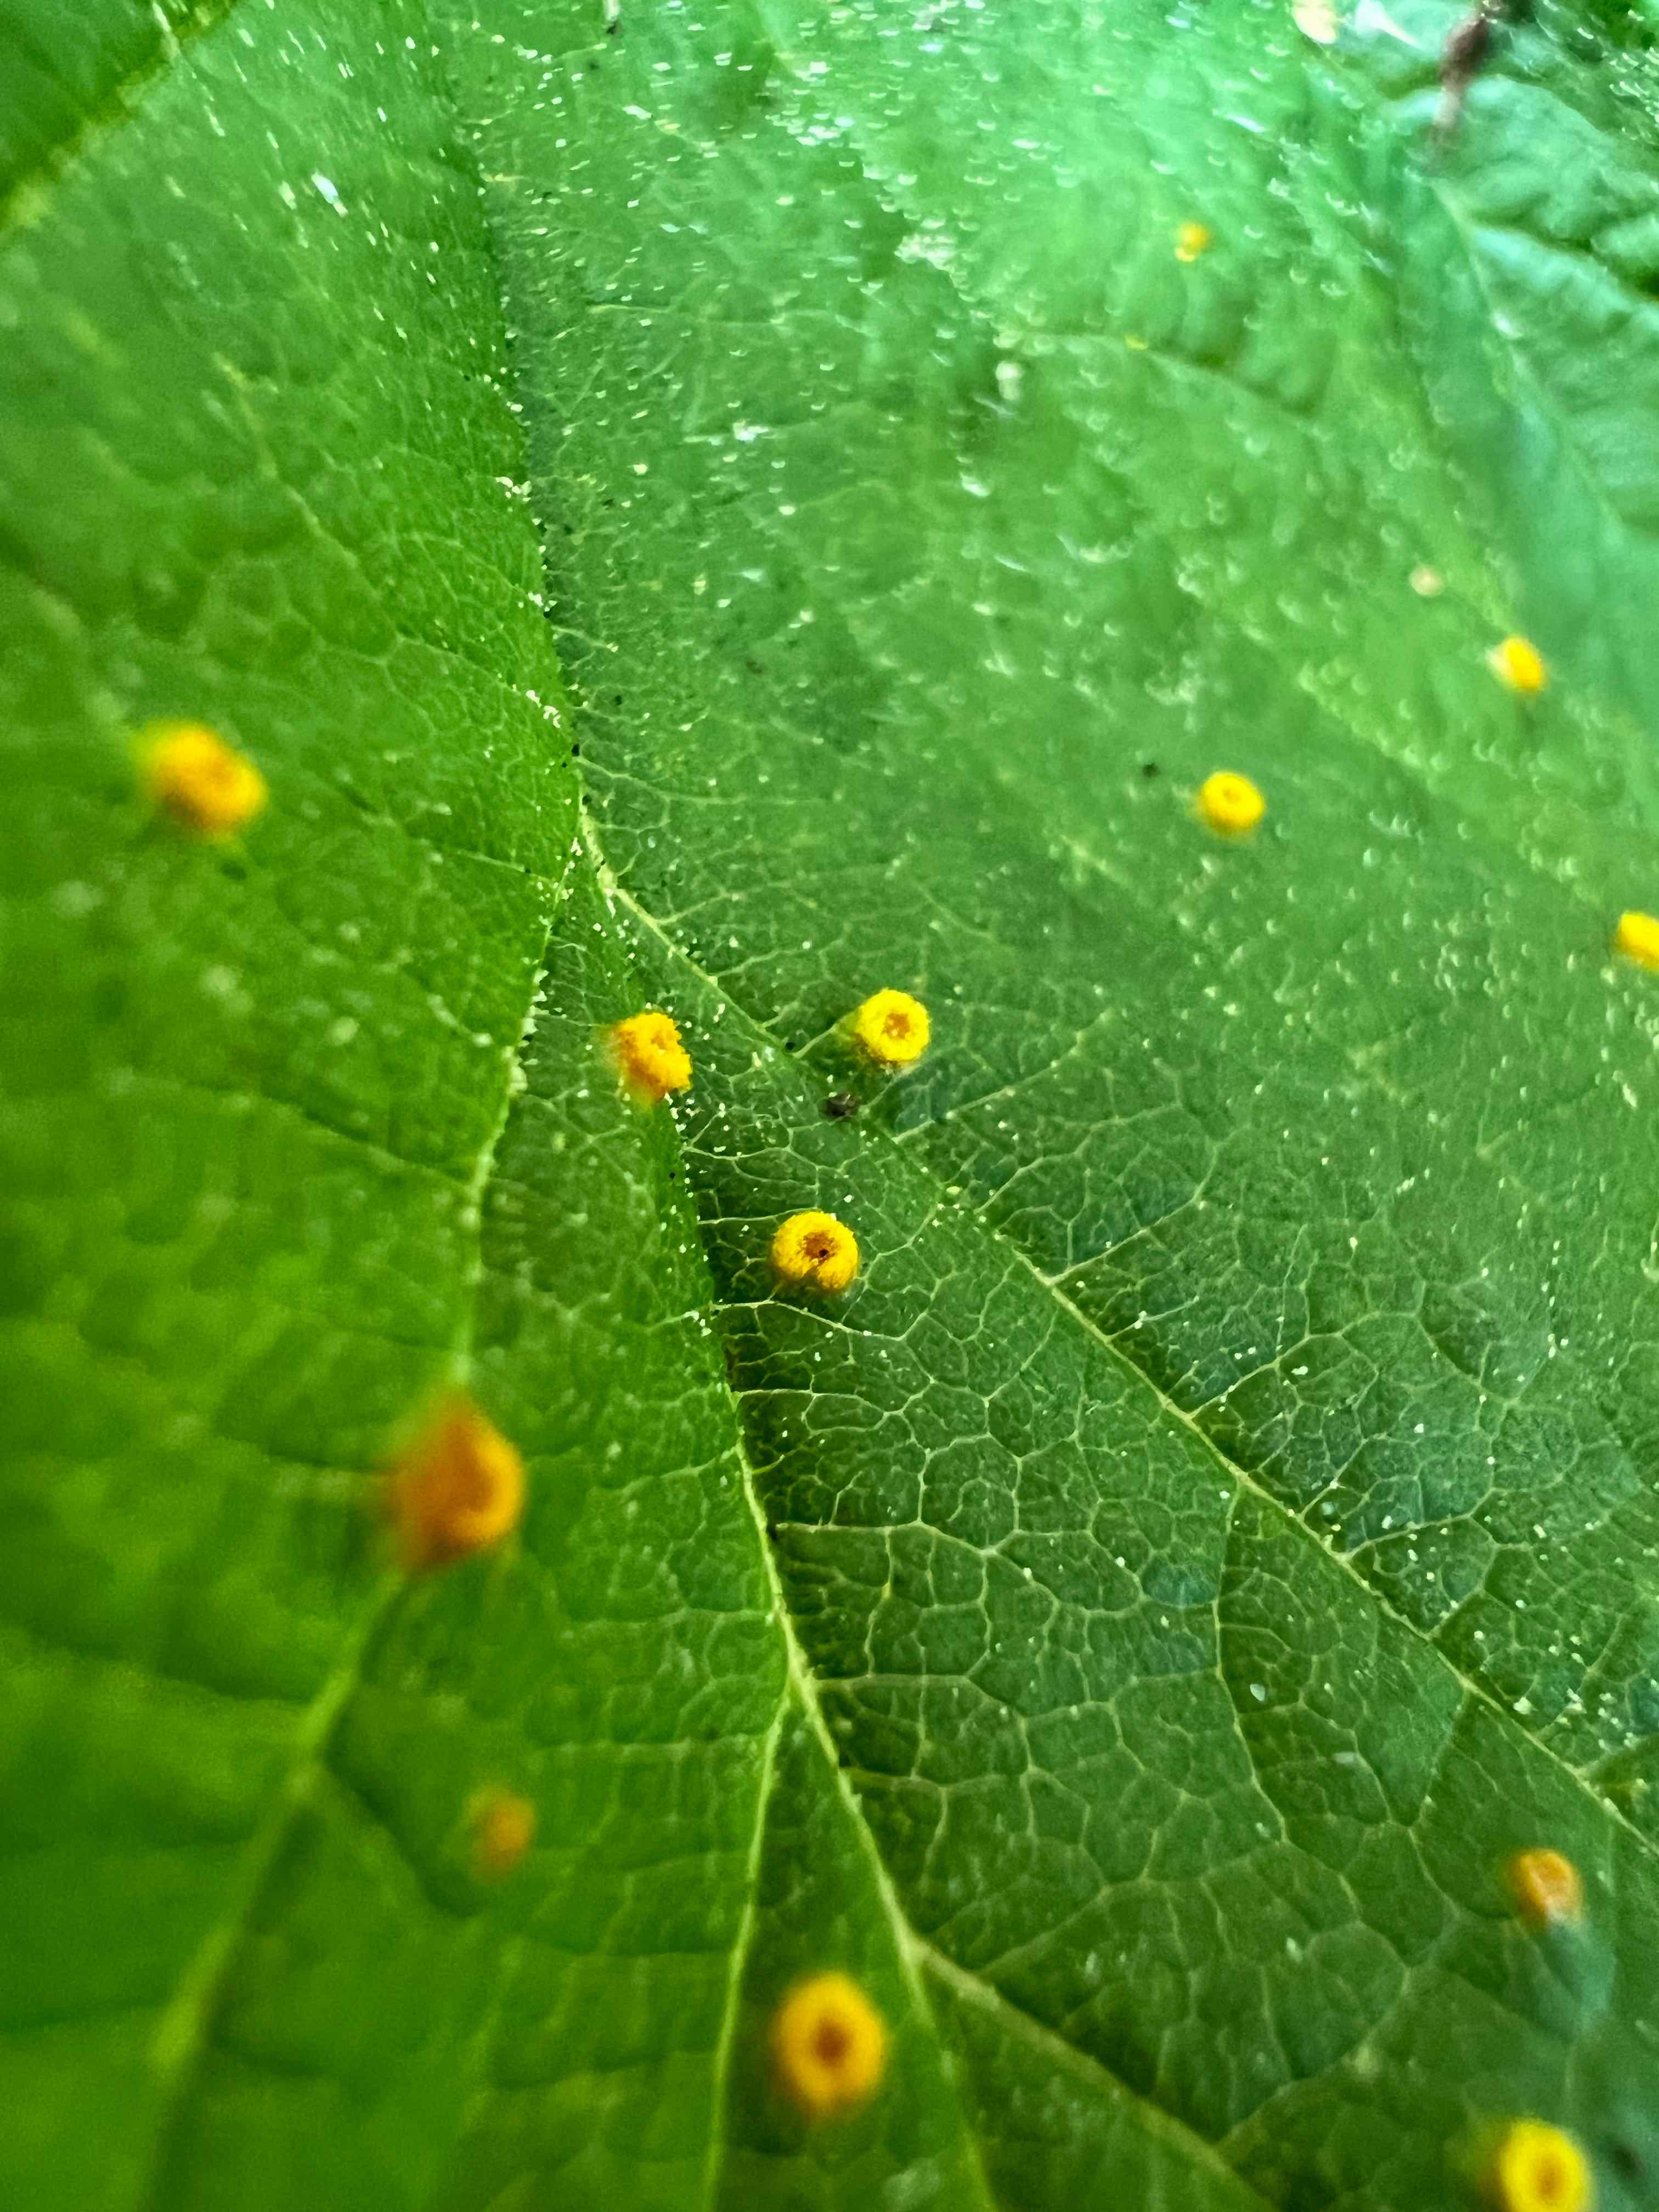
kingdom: Fungi
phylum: Basidiomycota
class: Pucciniomycetes
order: Pucciniales
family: Phragmidiaceae
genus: Phragmidium
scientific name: Phragmidium rubi-idaei
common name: hindbær-flercellerust
